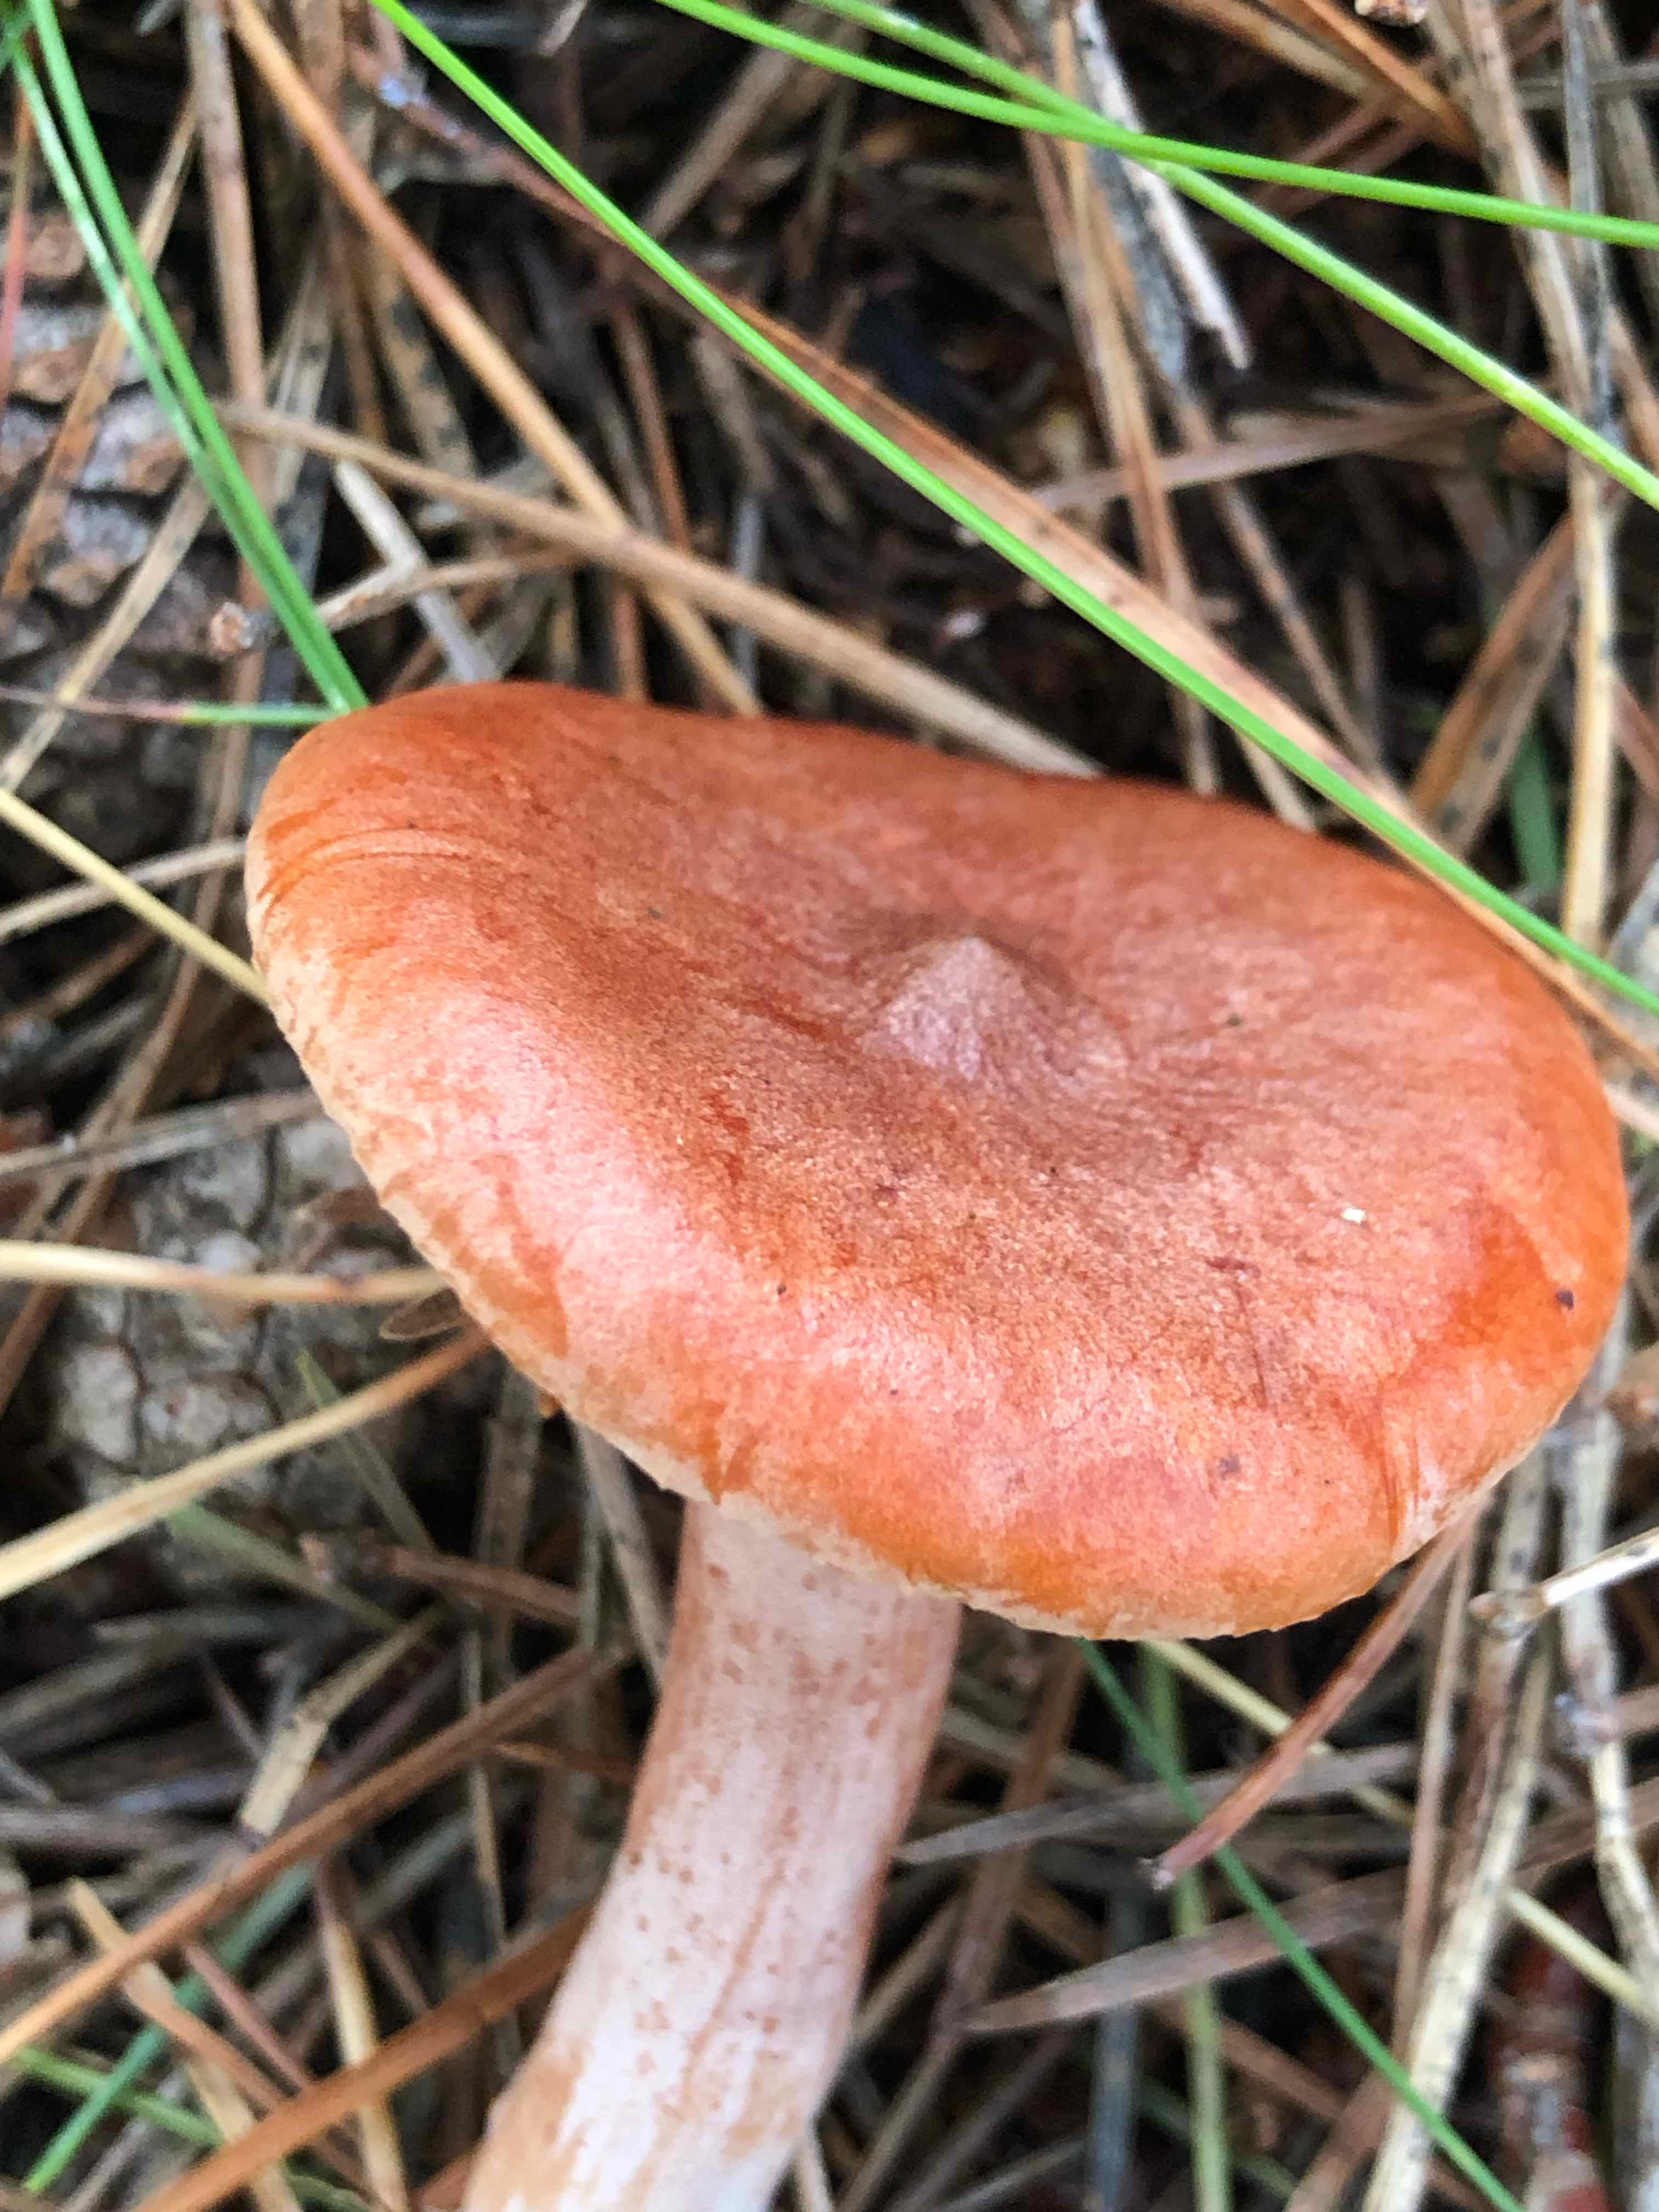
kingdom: Fungi
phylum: Basidiomycota
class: Agaricomycetes
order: Russulales
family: Russulaceae
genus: Lactarius
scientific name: Lactarius rufus
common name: rødbrun mælkehat
